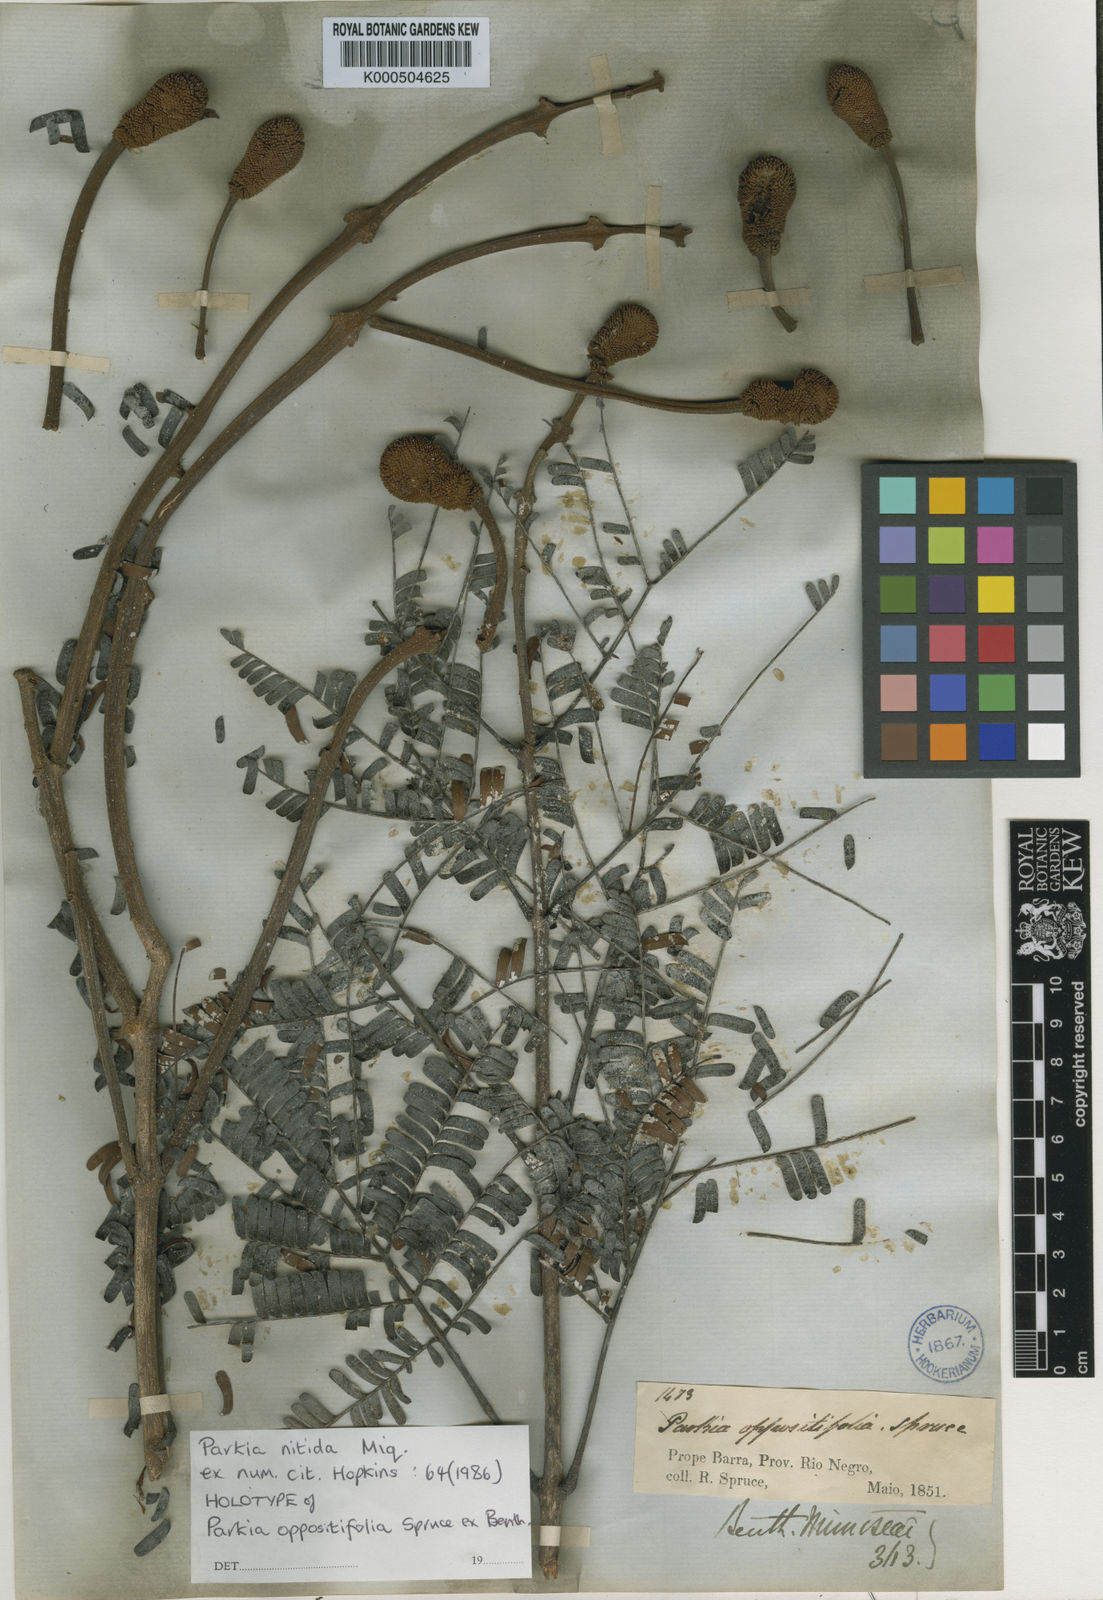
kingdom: Plantae
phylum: Tracheophyta
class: Magnoliopsida
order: Fabales
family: Fabaceae
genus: Parkia
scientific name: Parkia nitida
